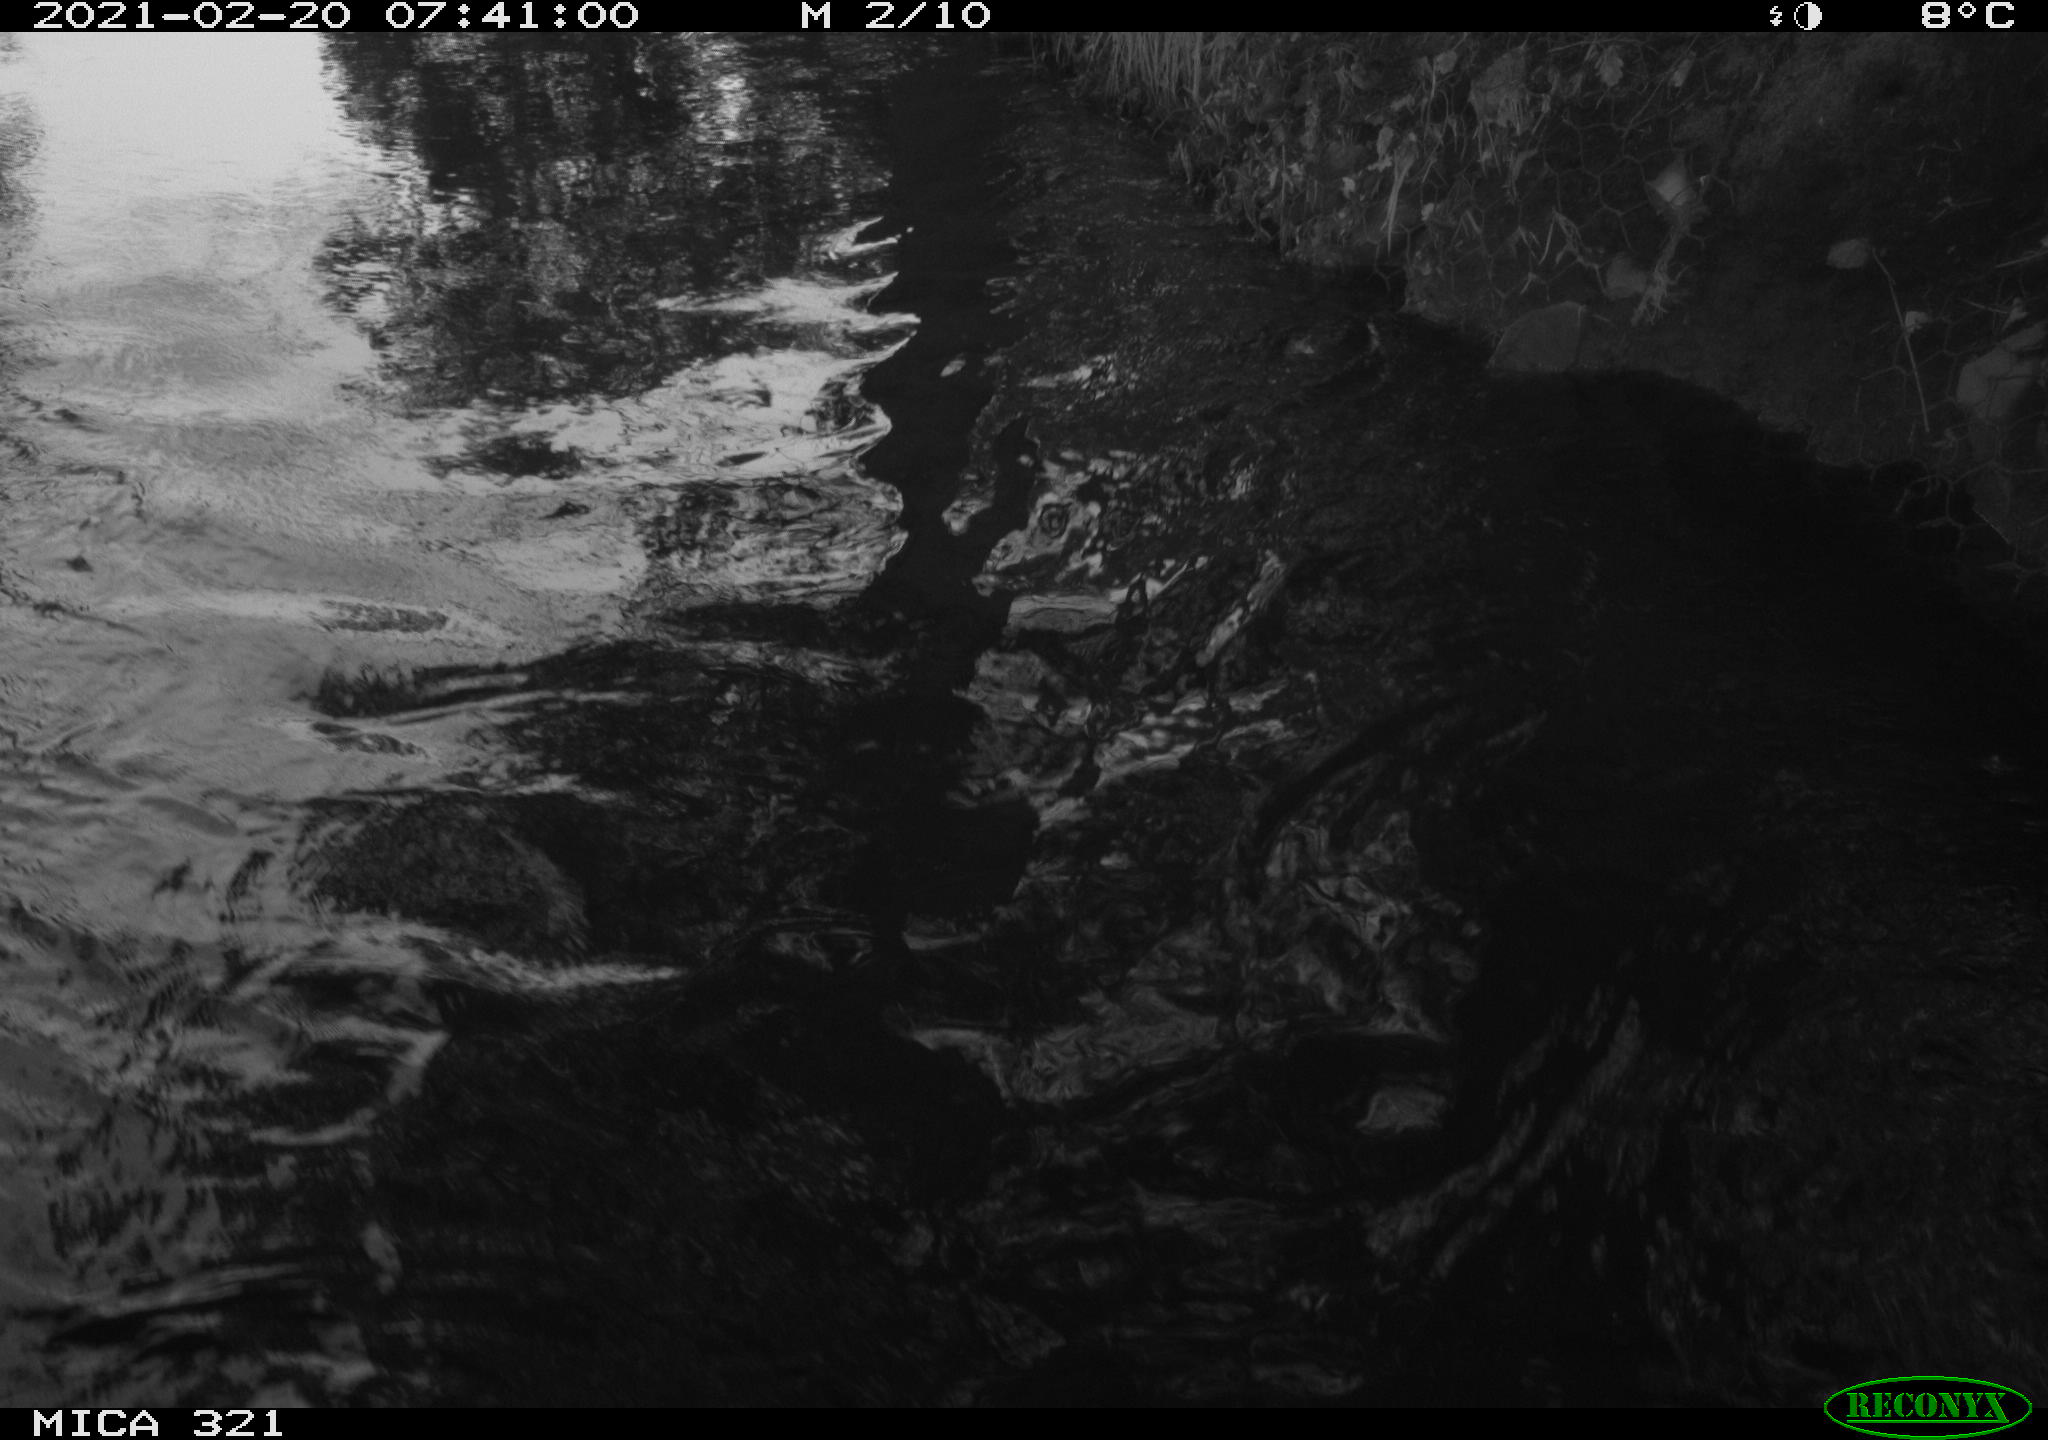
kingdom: Animalia
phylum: Chordata
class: Aves
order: Anseriformes
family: Anatidae
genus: Anas
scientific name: Anas platyrhynchos
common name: Mallard
